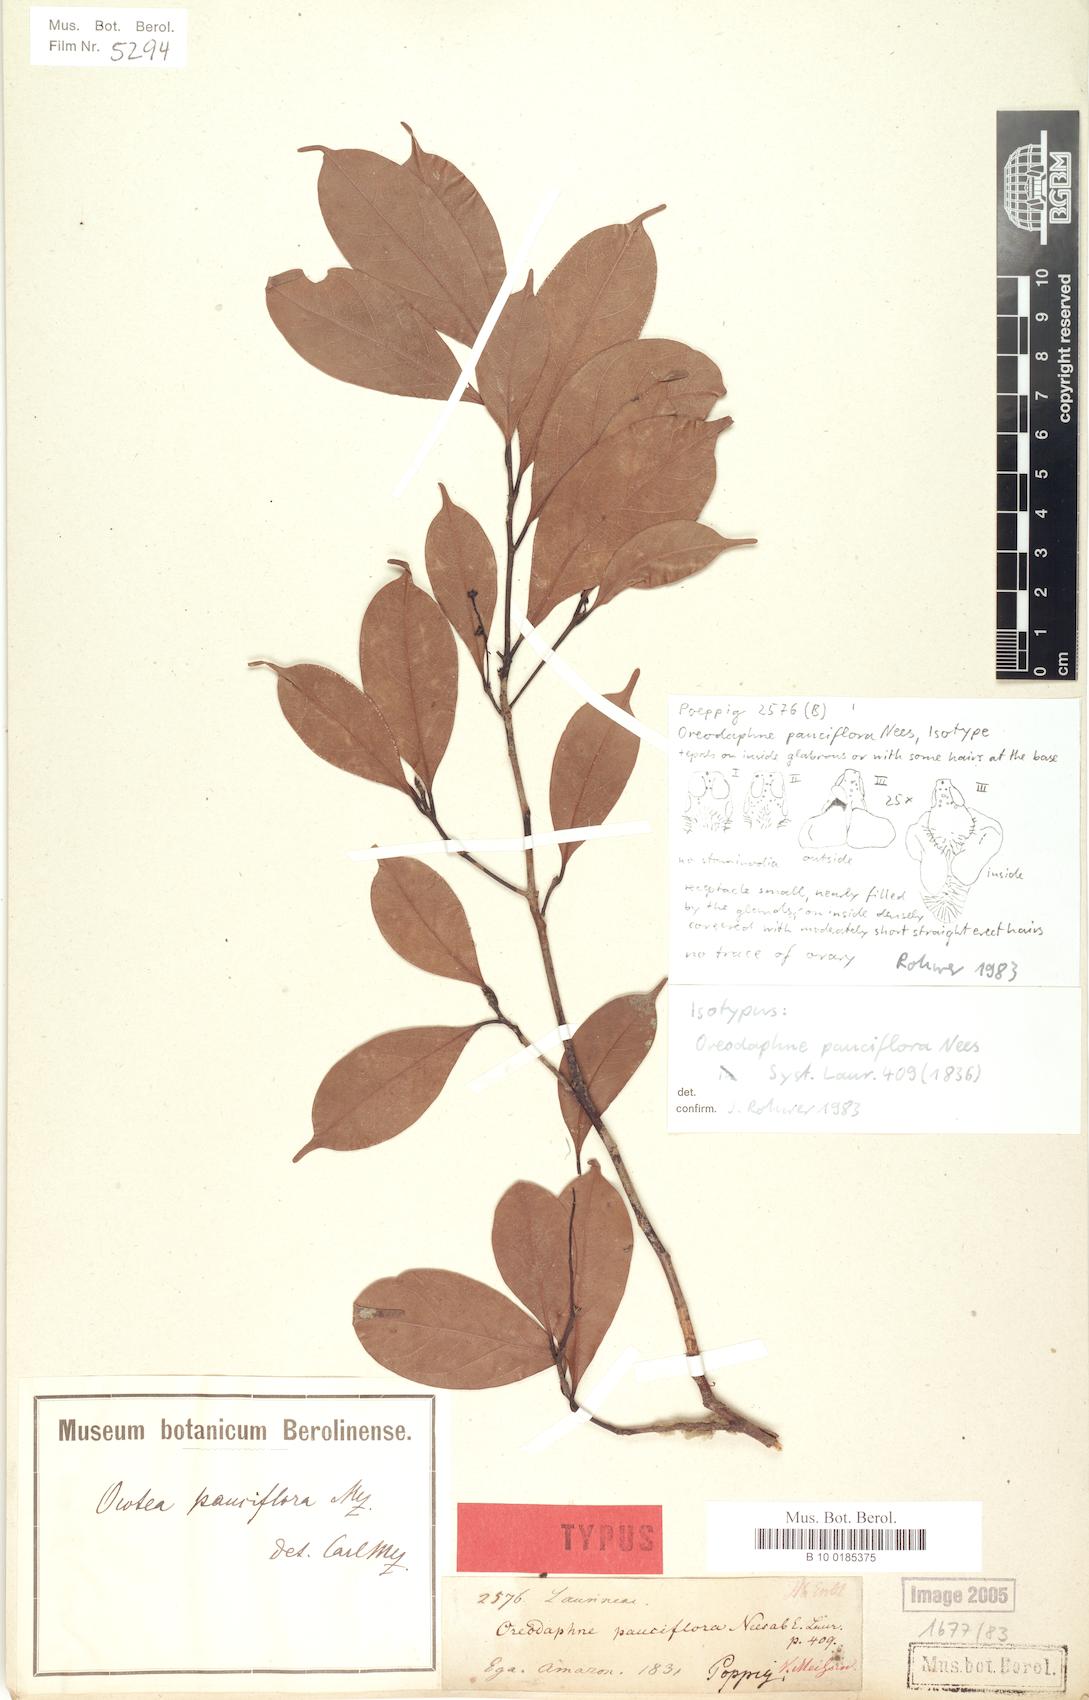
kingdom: Plantae
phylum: Tracheophyta
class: Magnoliopsida
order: Laurales
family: Lauraceae
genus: Ocotea
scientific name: Ocotea pauciflora
